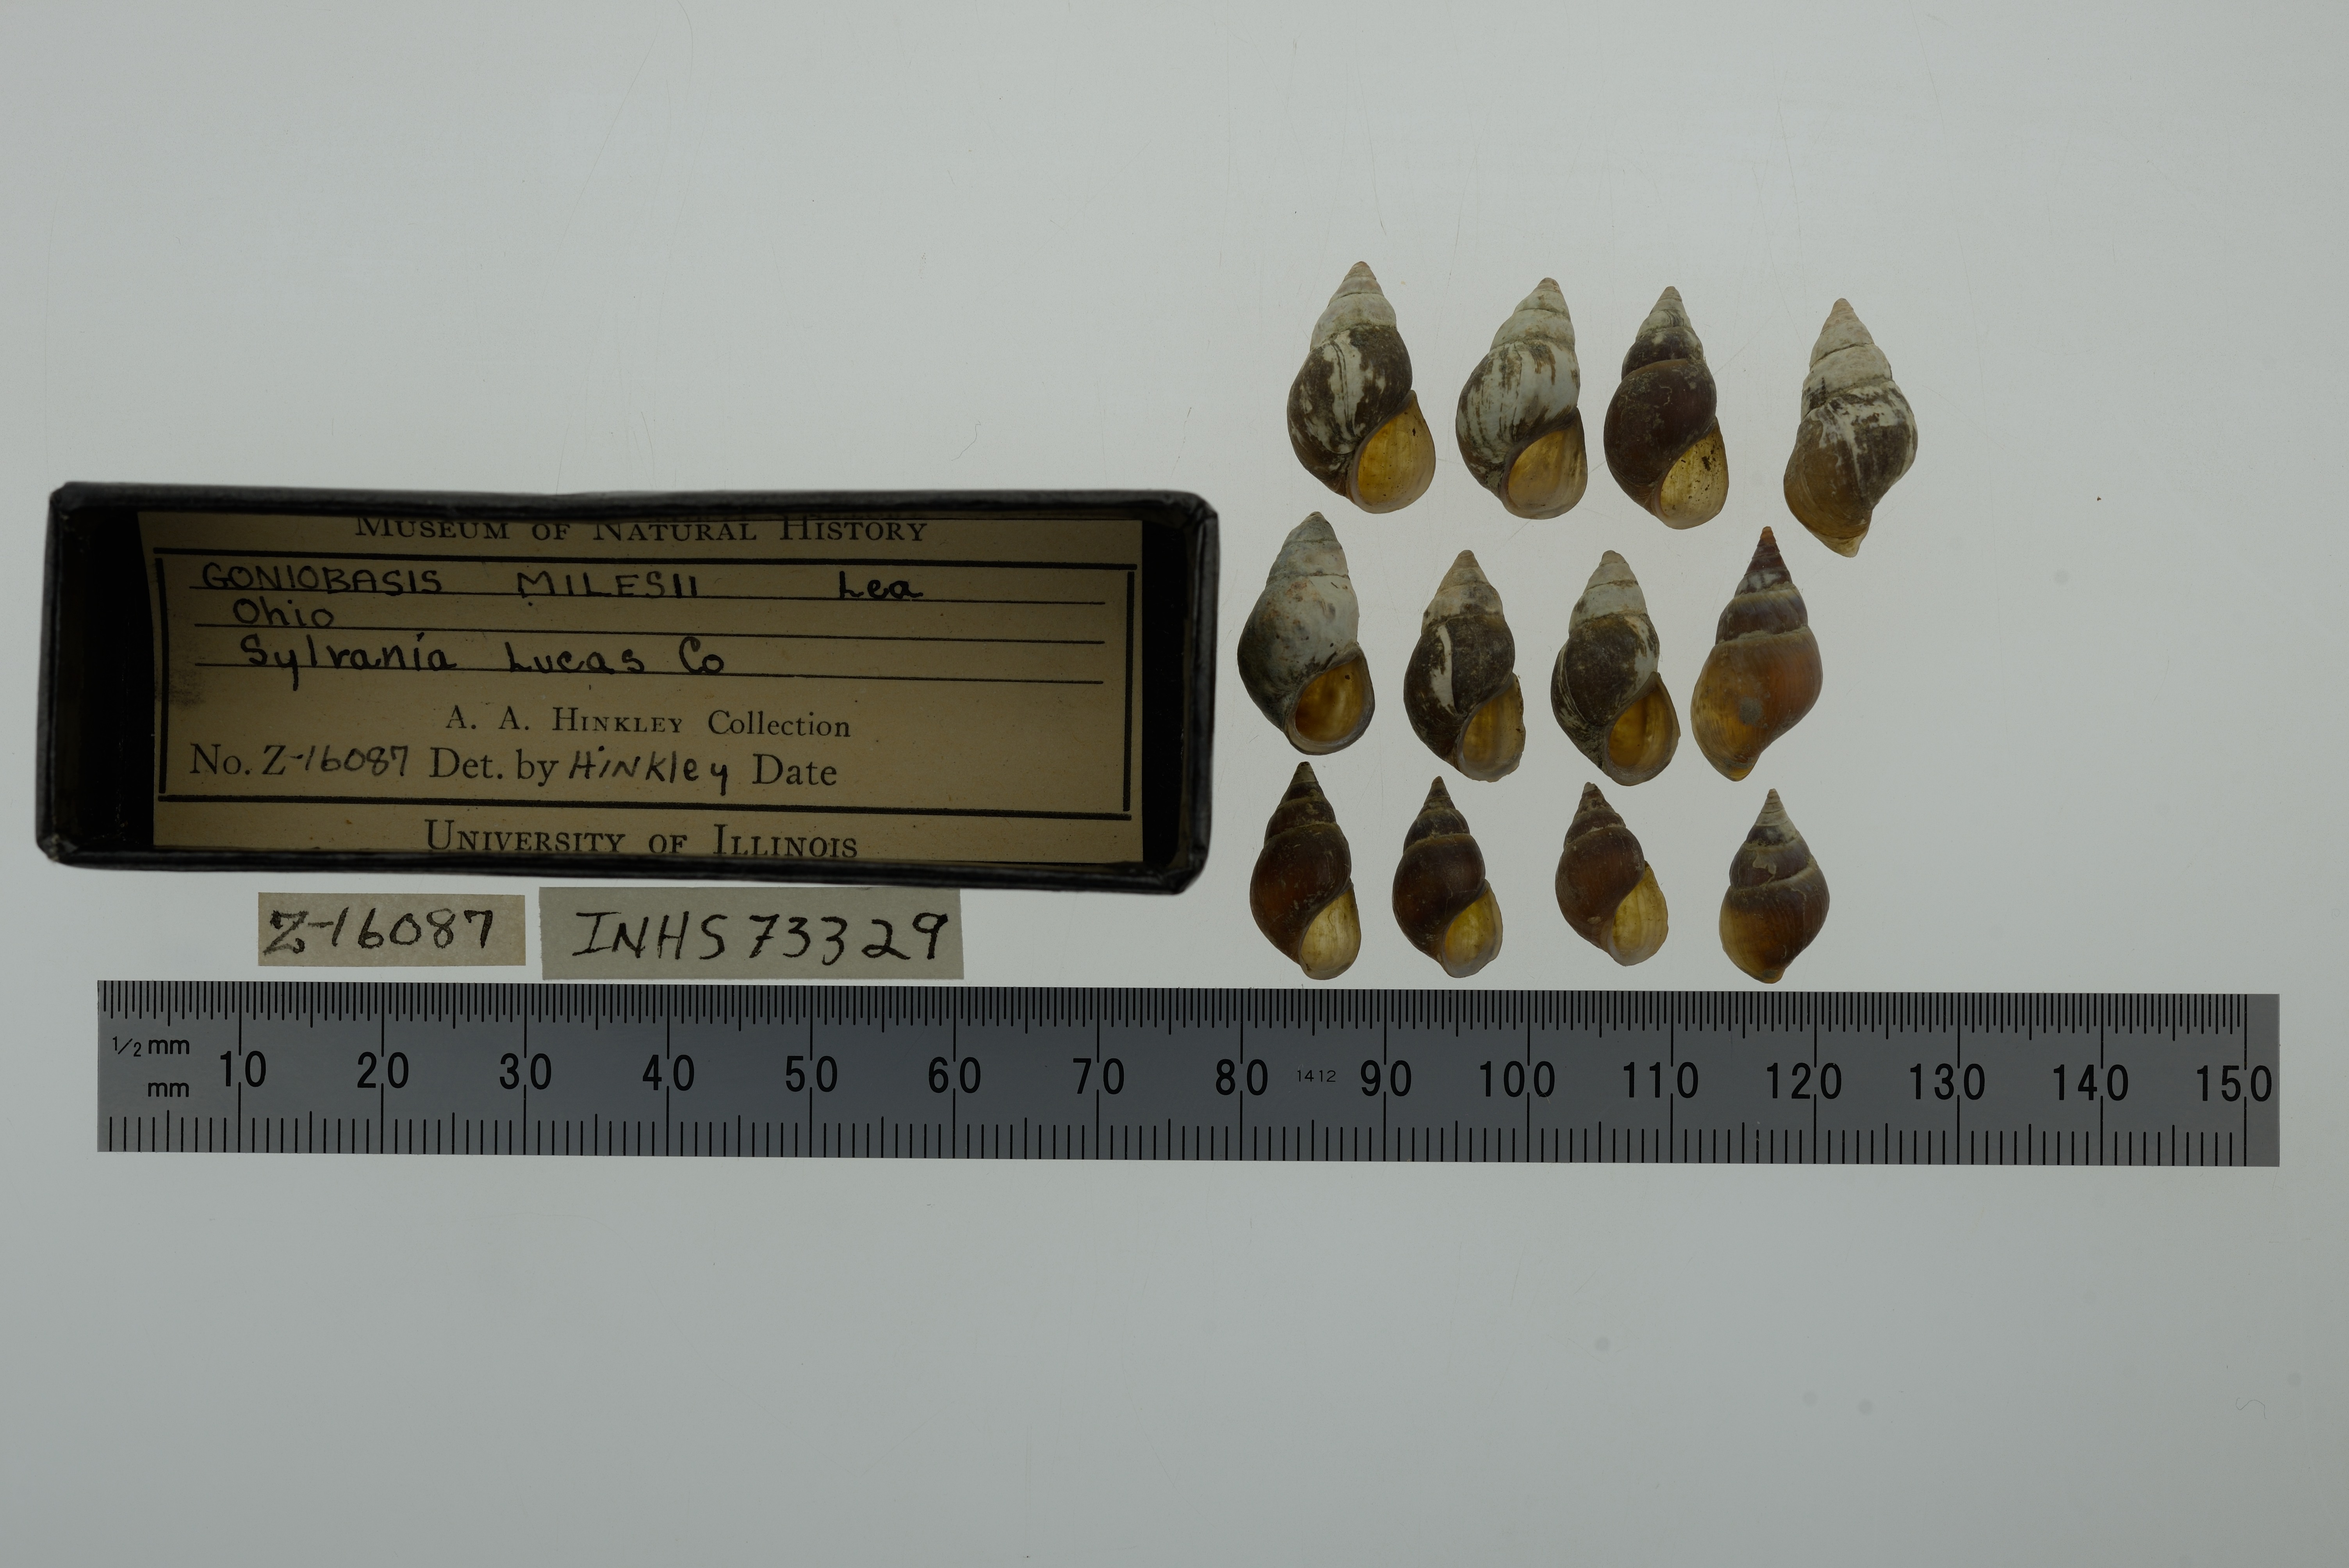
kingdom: Animalia
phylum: Mollusca
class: Gastropoda
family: Pleuroceridae
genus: Elimia
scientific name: Elimia livescens
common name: Liver elimia
